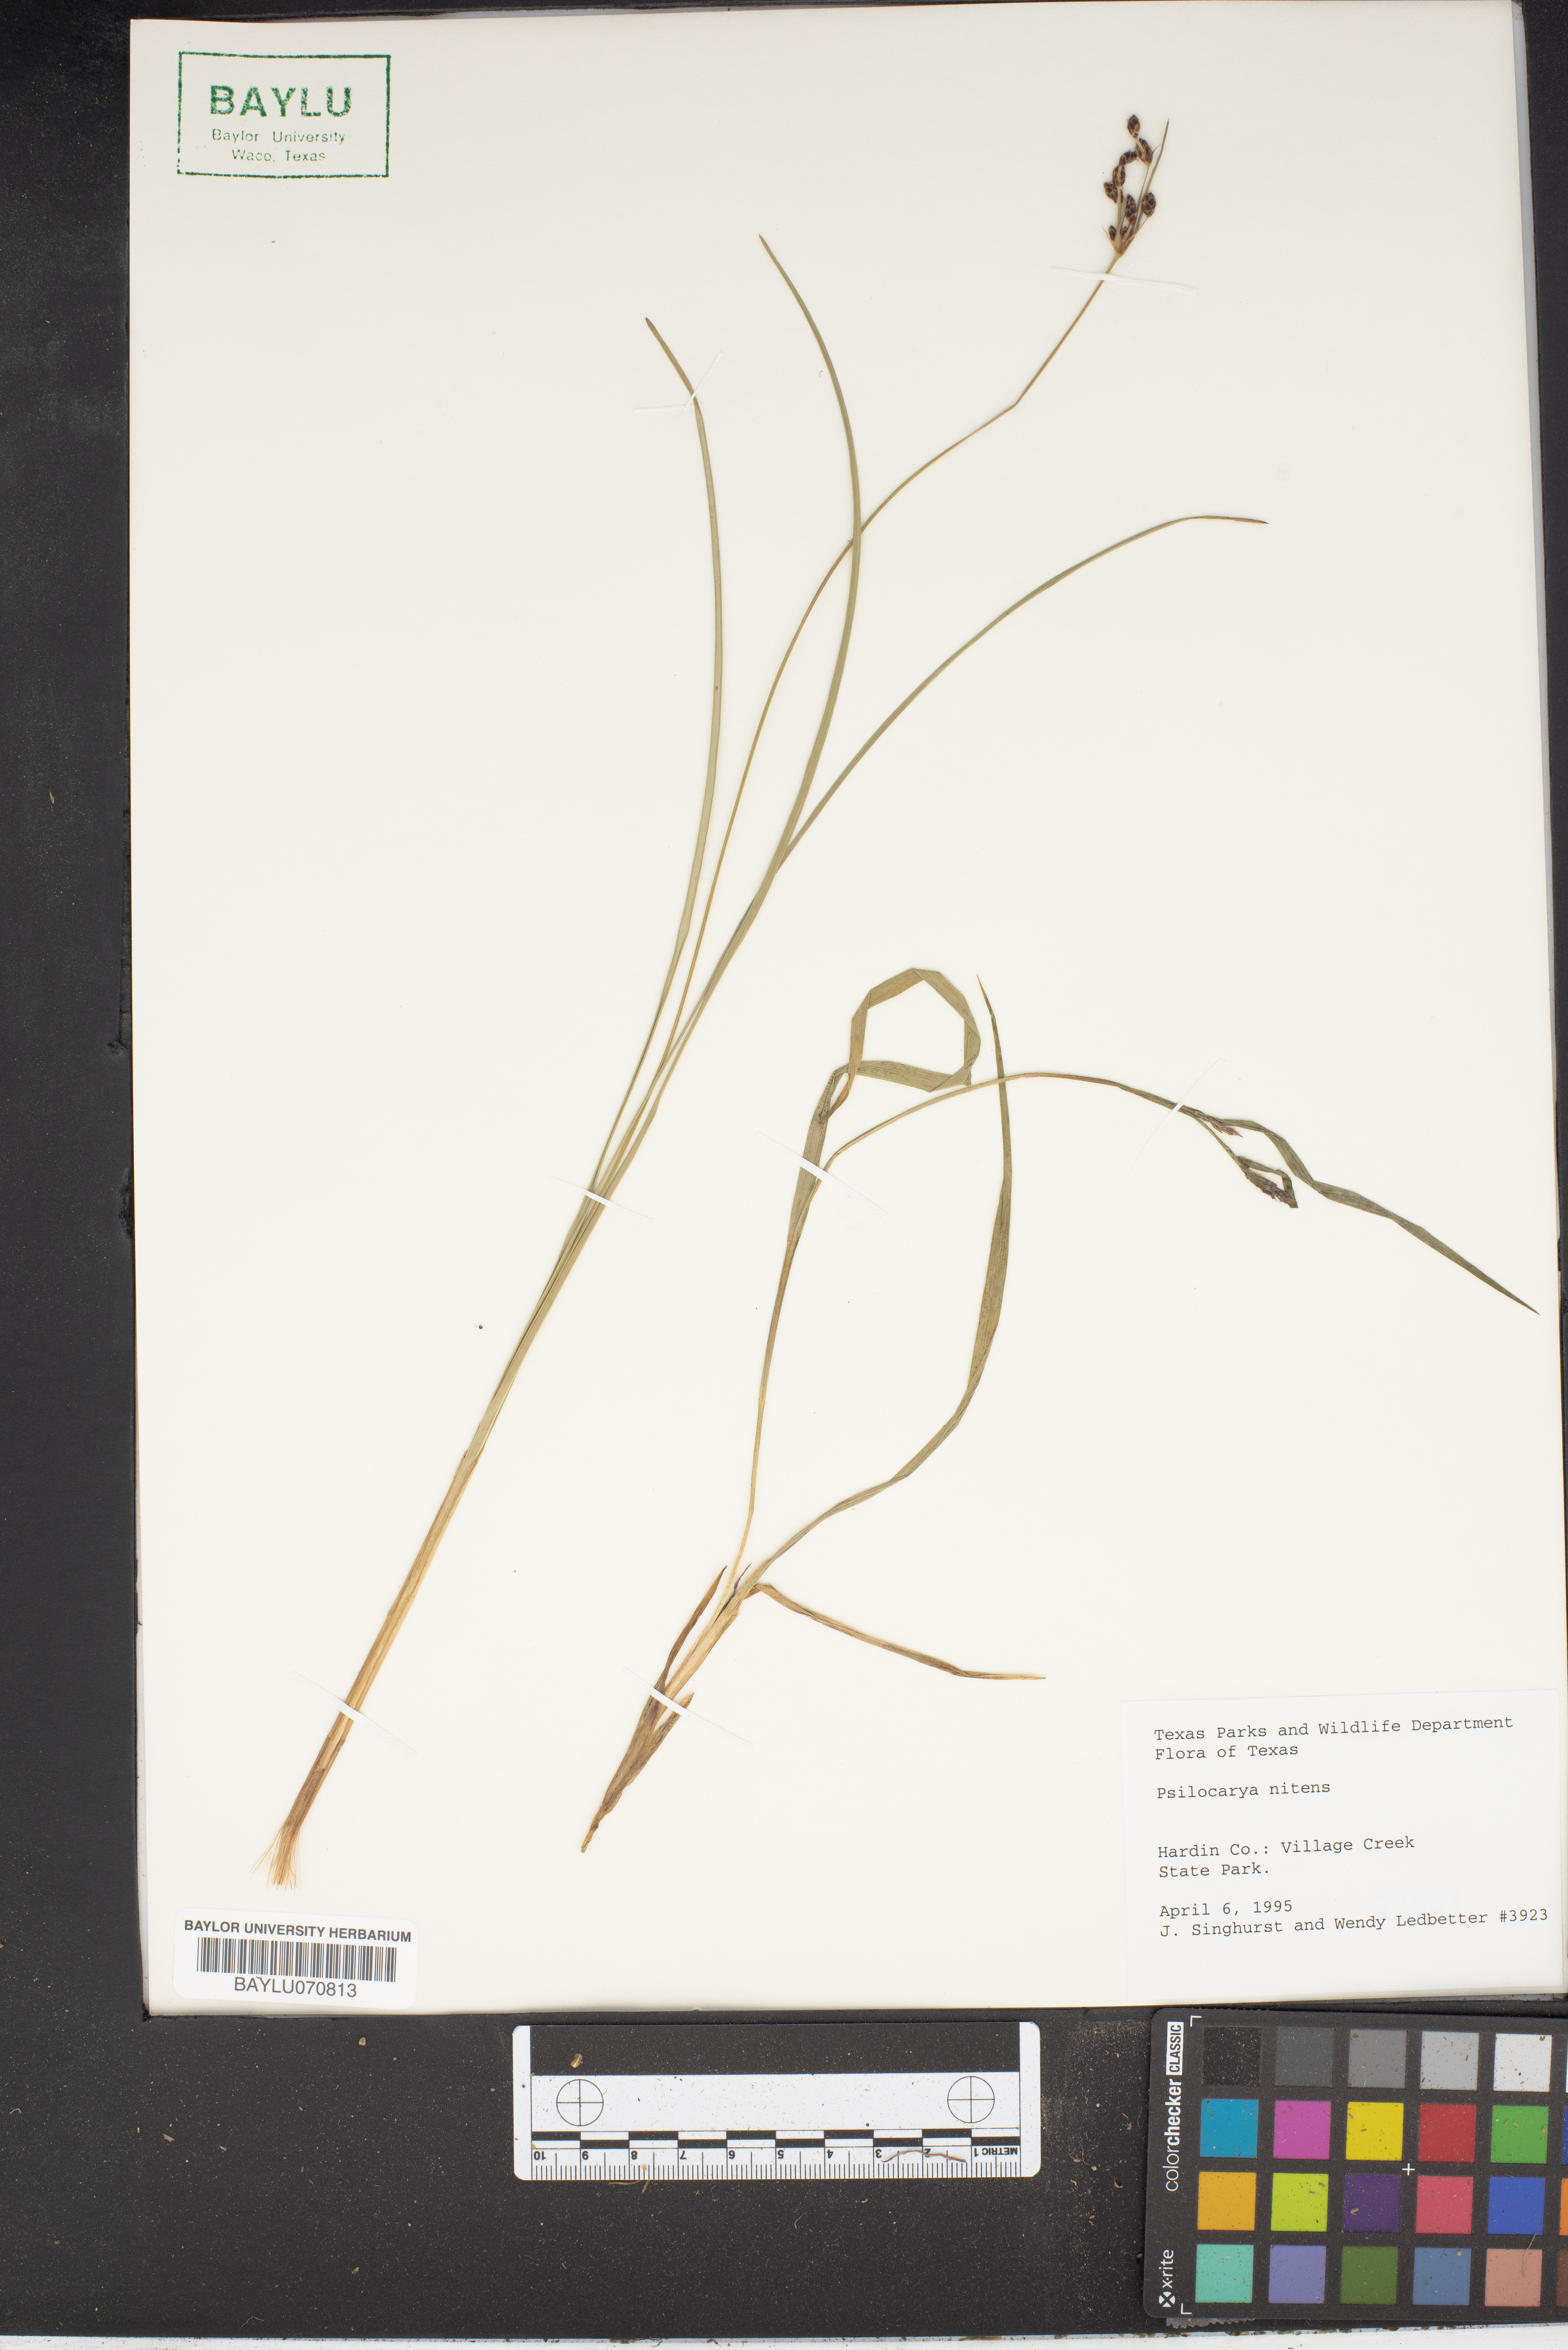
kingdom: Plantae
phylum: Tracheophyta
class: Liliopsida
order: Poales
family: Cyperaceae
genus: Rhynchospora
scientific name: Rhynchospora nitens
